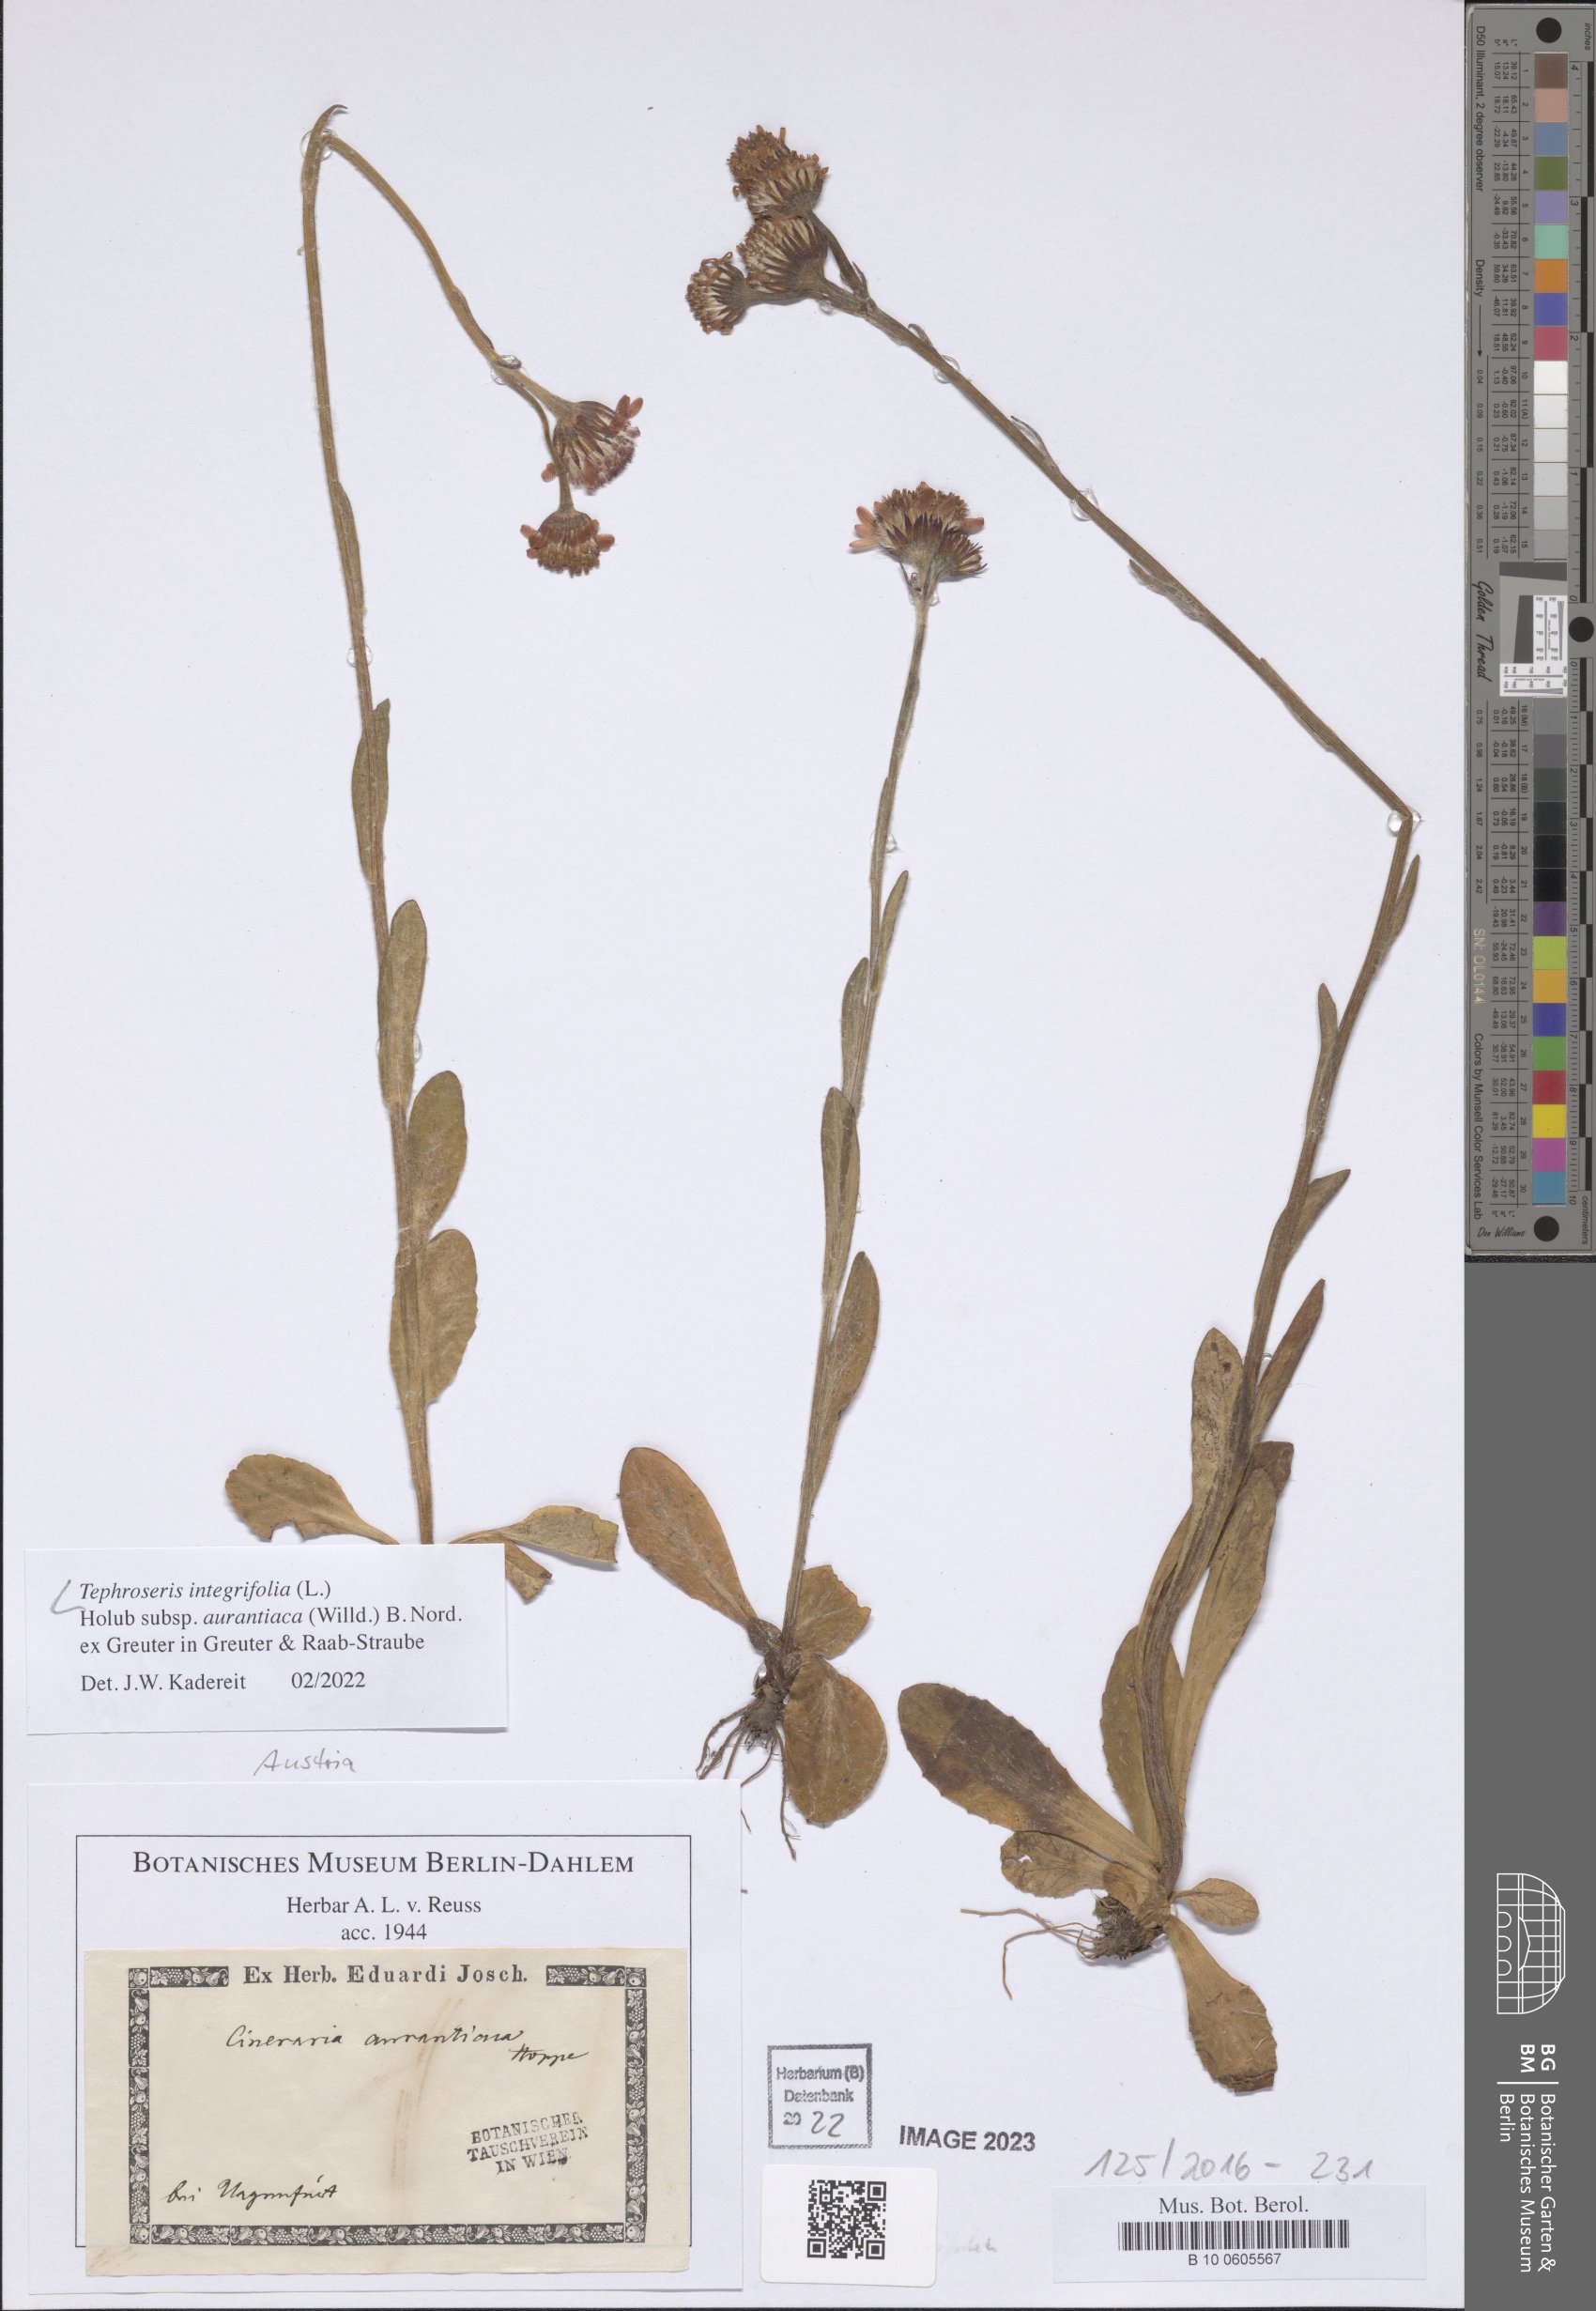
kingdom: Plantae
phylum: Tracheophyta
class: Magnoliopsida
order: Asterales
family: Asteraceae
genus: Tephroseris
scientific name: Tephroseris aurantiaca
